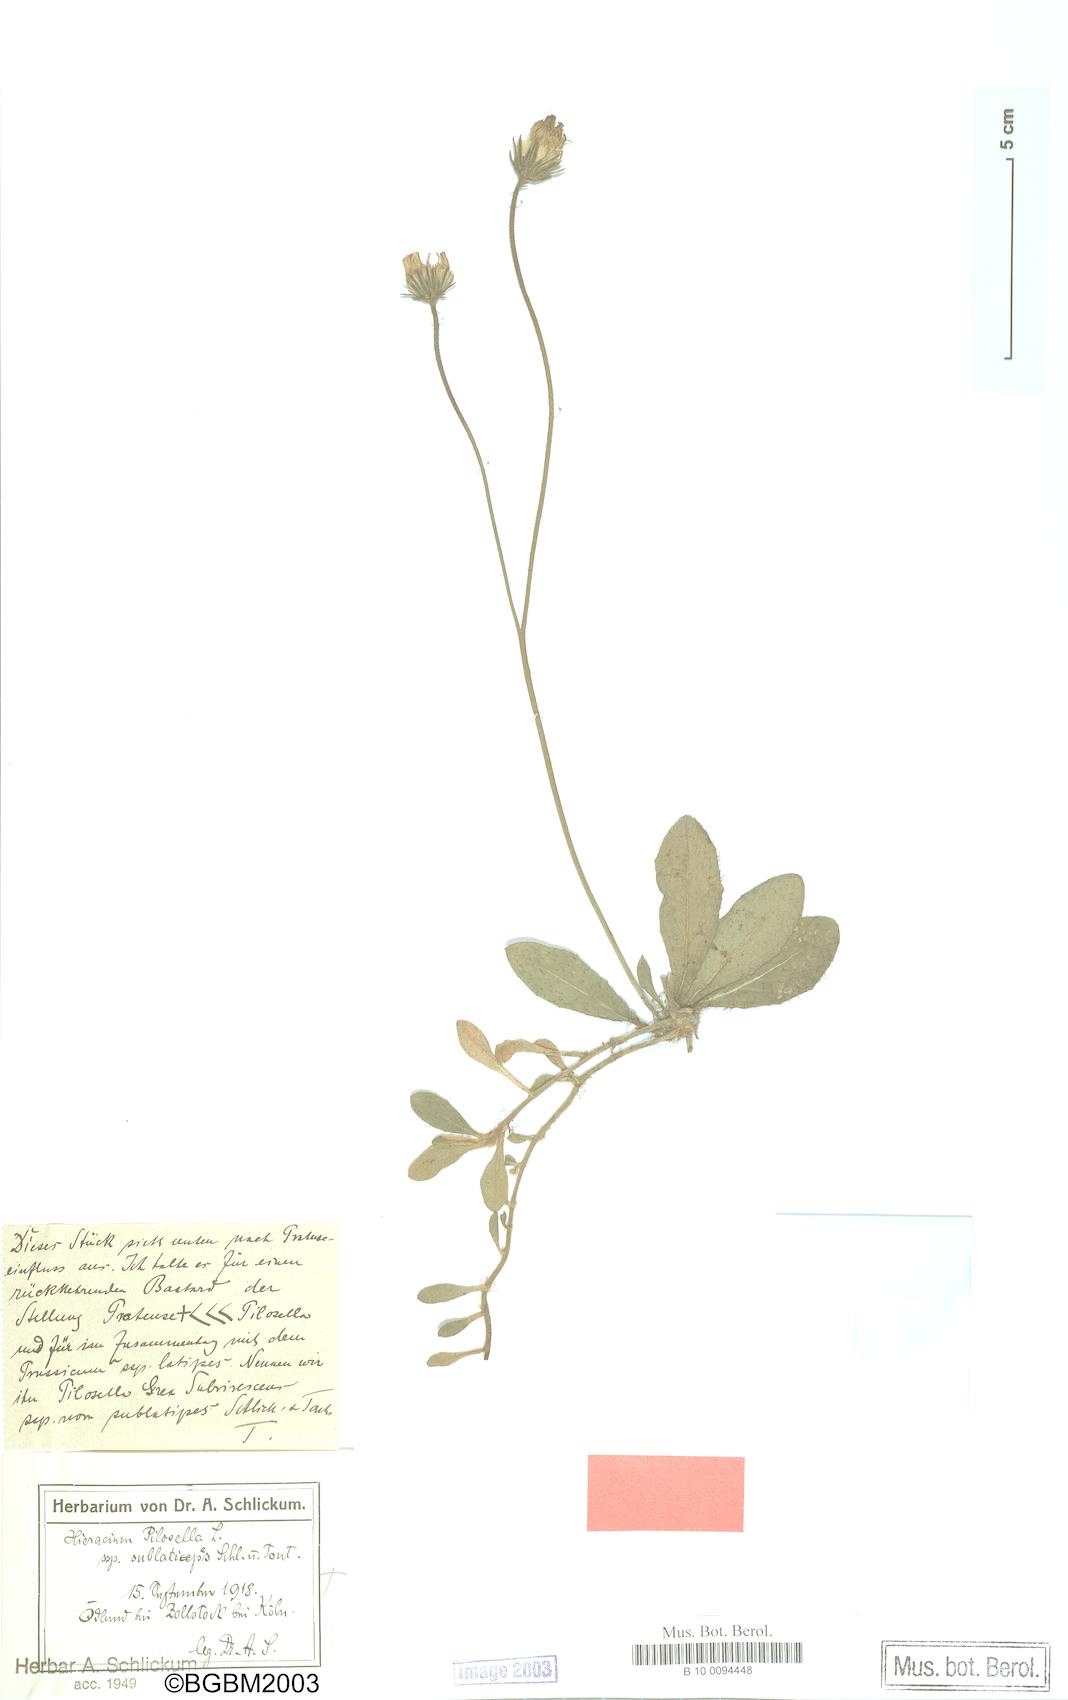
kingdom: Plantae
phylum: Tracheophyta
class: Magnoliopsida
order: Asterales
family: Asteraceae
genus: Pilosella
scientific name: Pilosella officinarum
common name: Mouse-ear hawkweed
